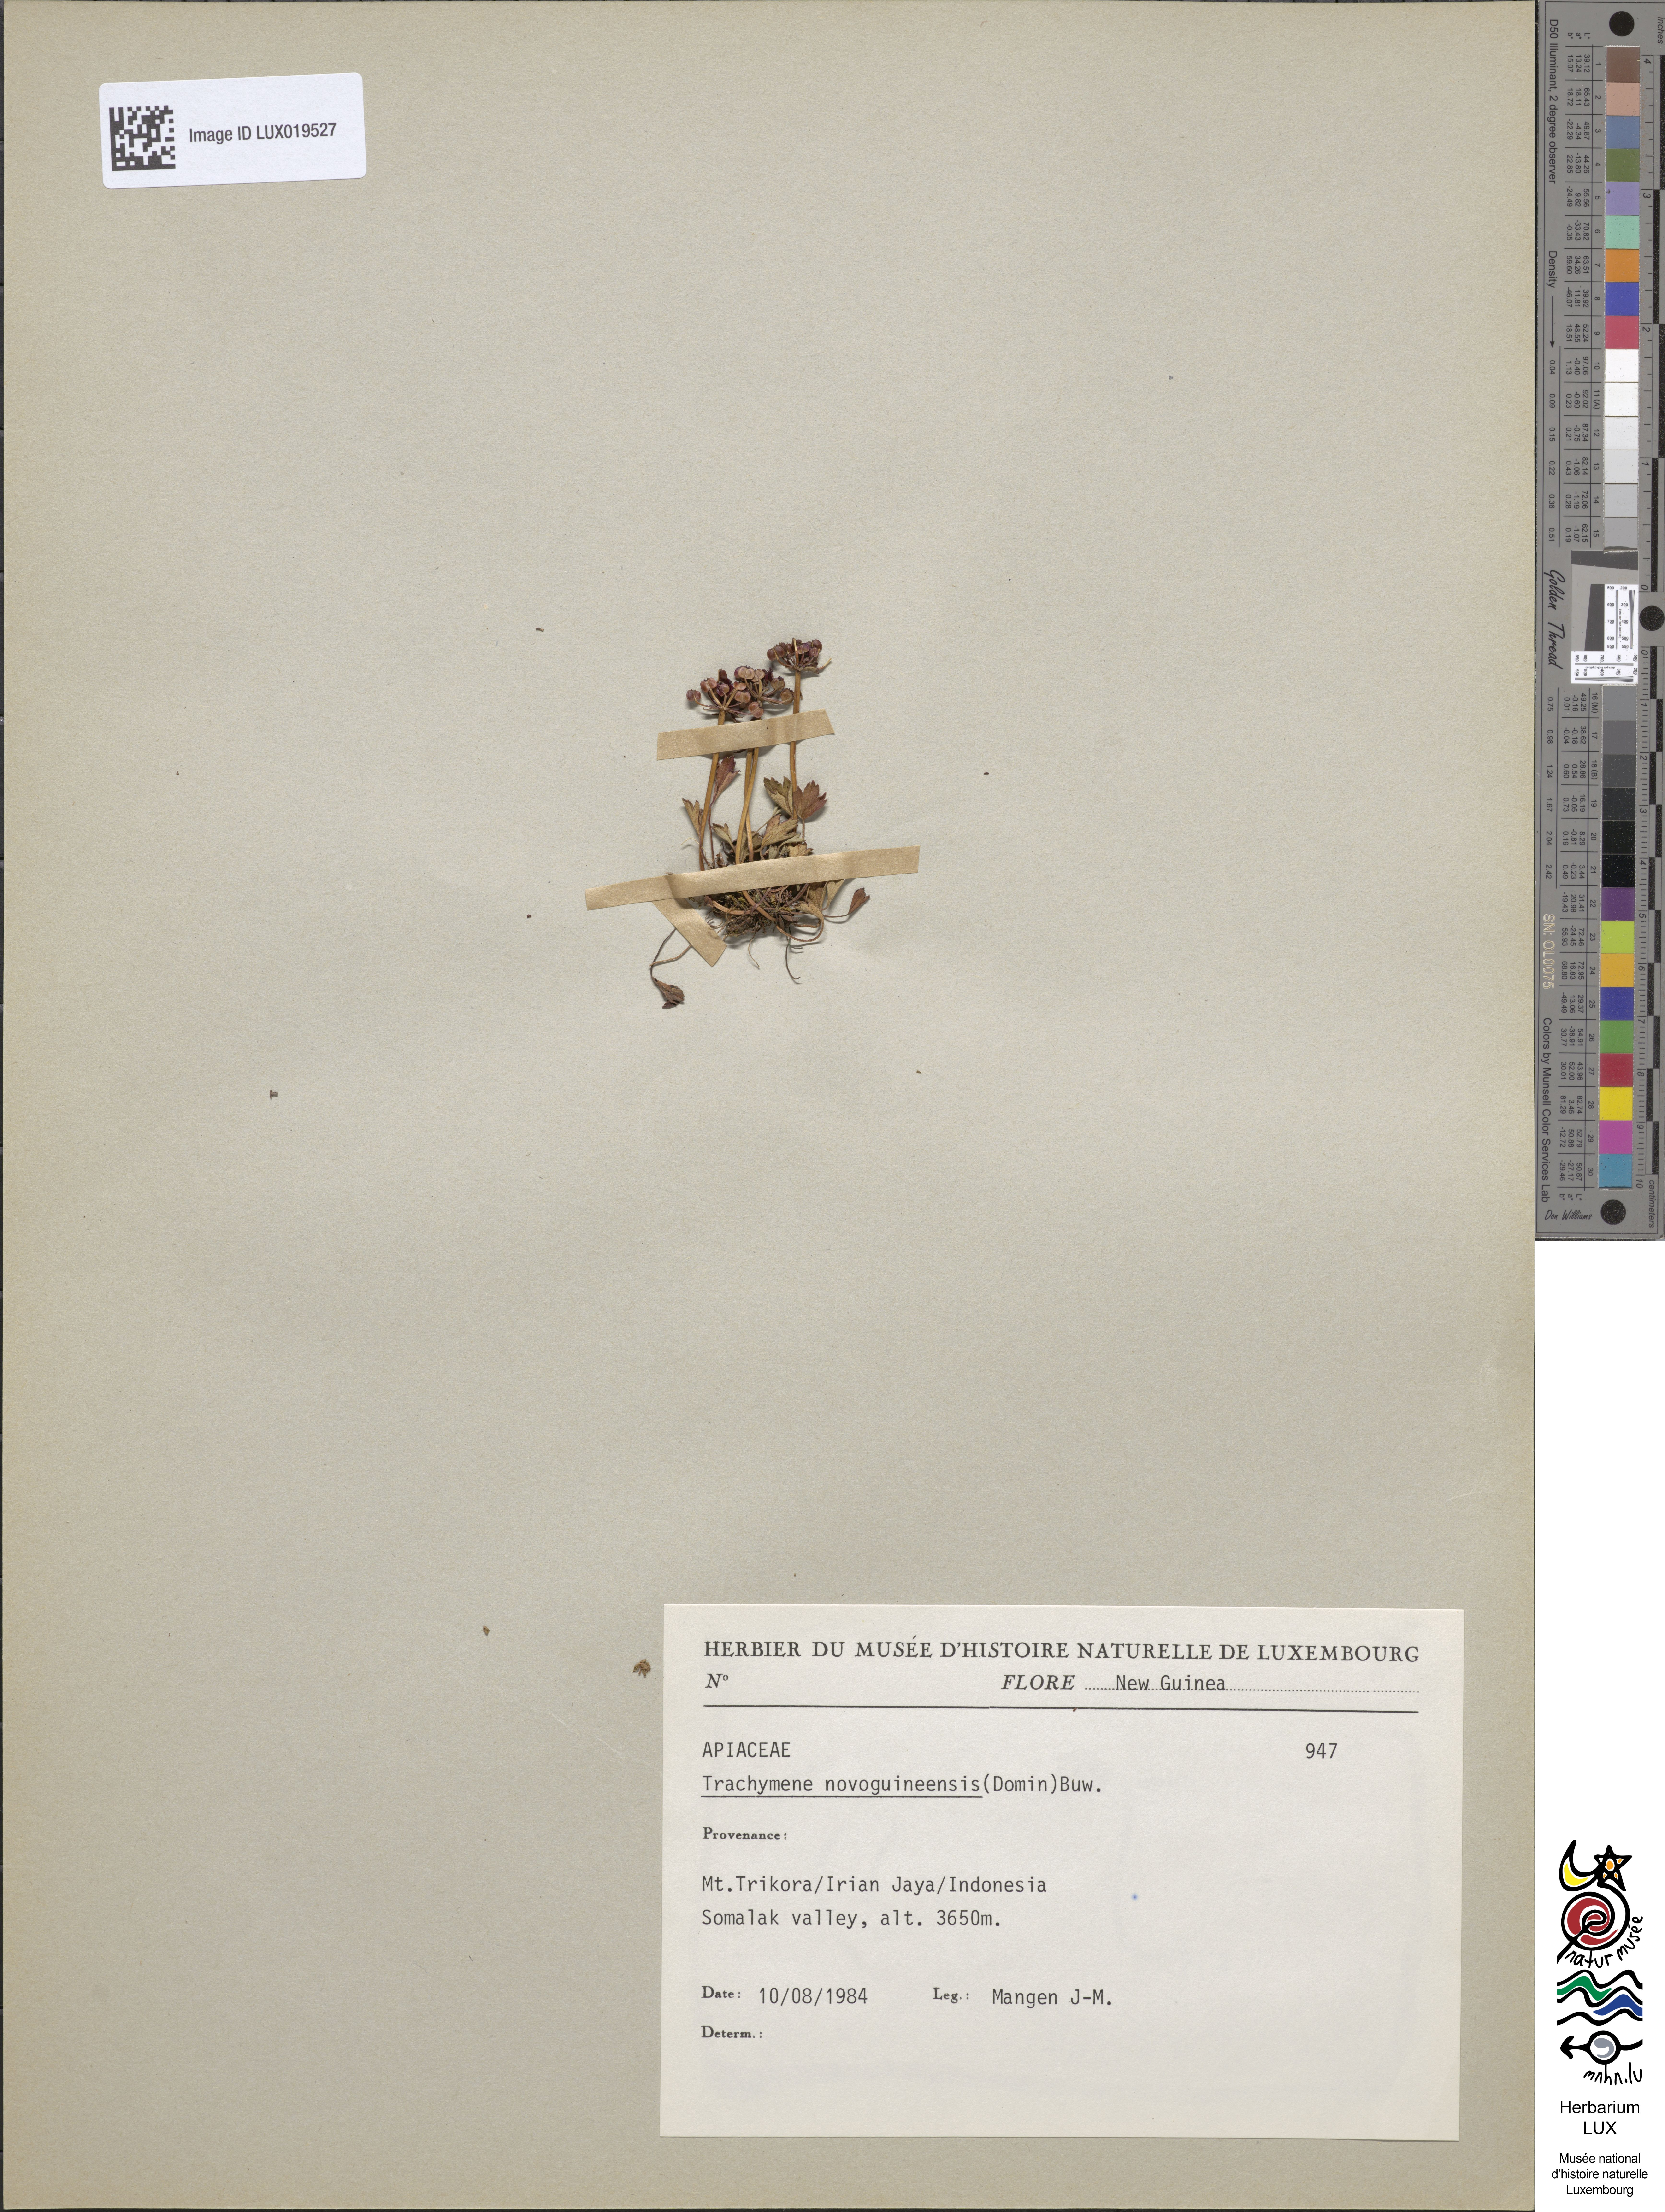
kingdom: Plantae
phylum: Tracheophyta
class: Magnoliopsida
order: Apiales
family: Araliaceae
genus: Trachymene
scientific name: Trachymene novoguineensis
